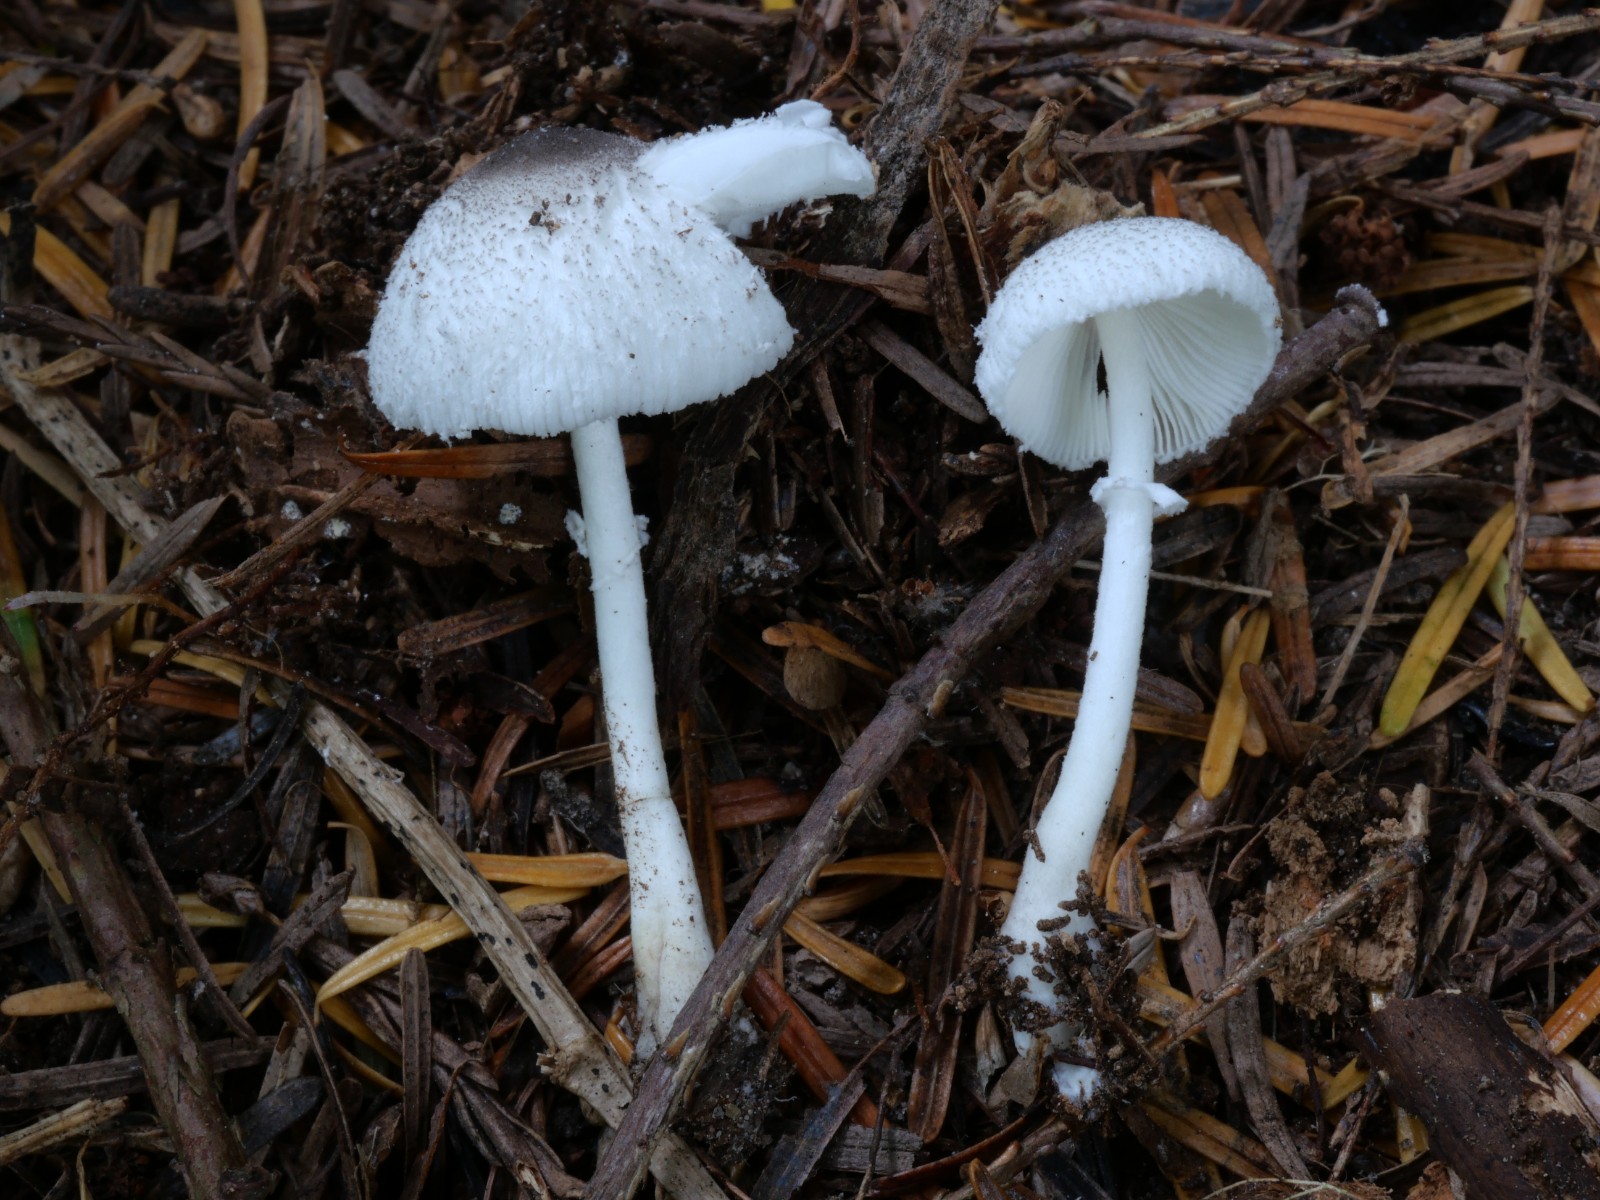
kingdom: Fungi
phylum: Basidiomycota
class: Agaricomycetes
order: Agaricales
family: Agaricaceae
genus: Leucocoprinus
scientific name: Leucocoprinus brebissonii
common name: gråsort silkehat
